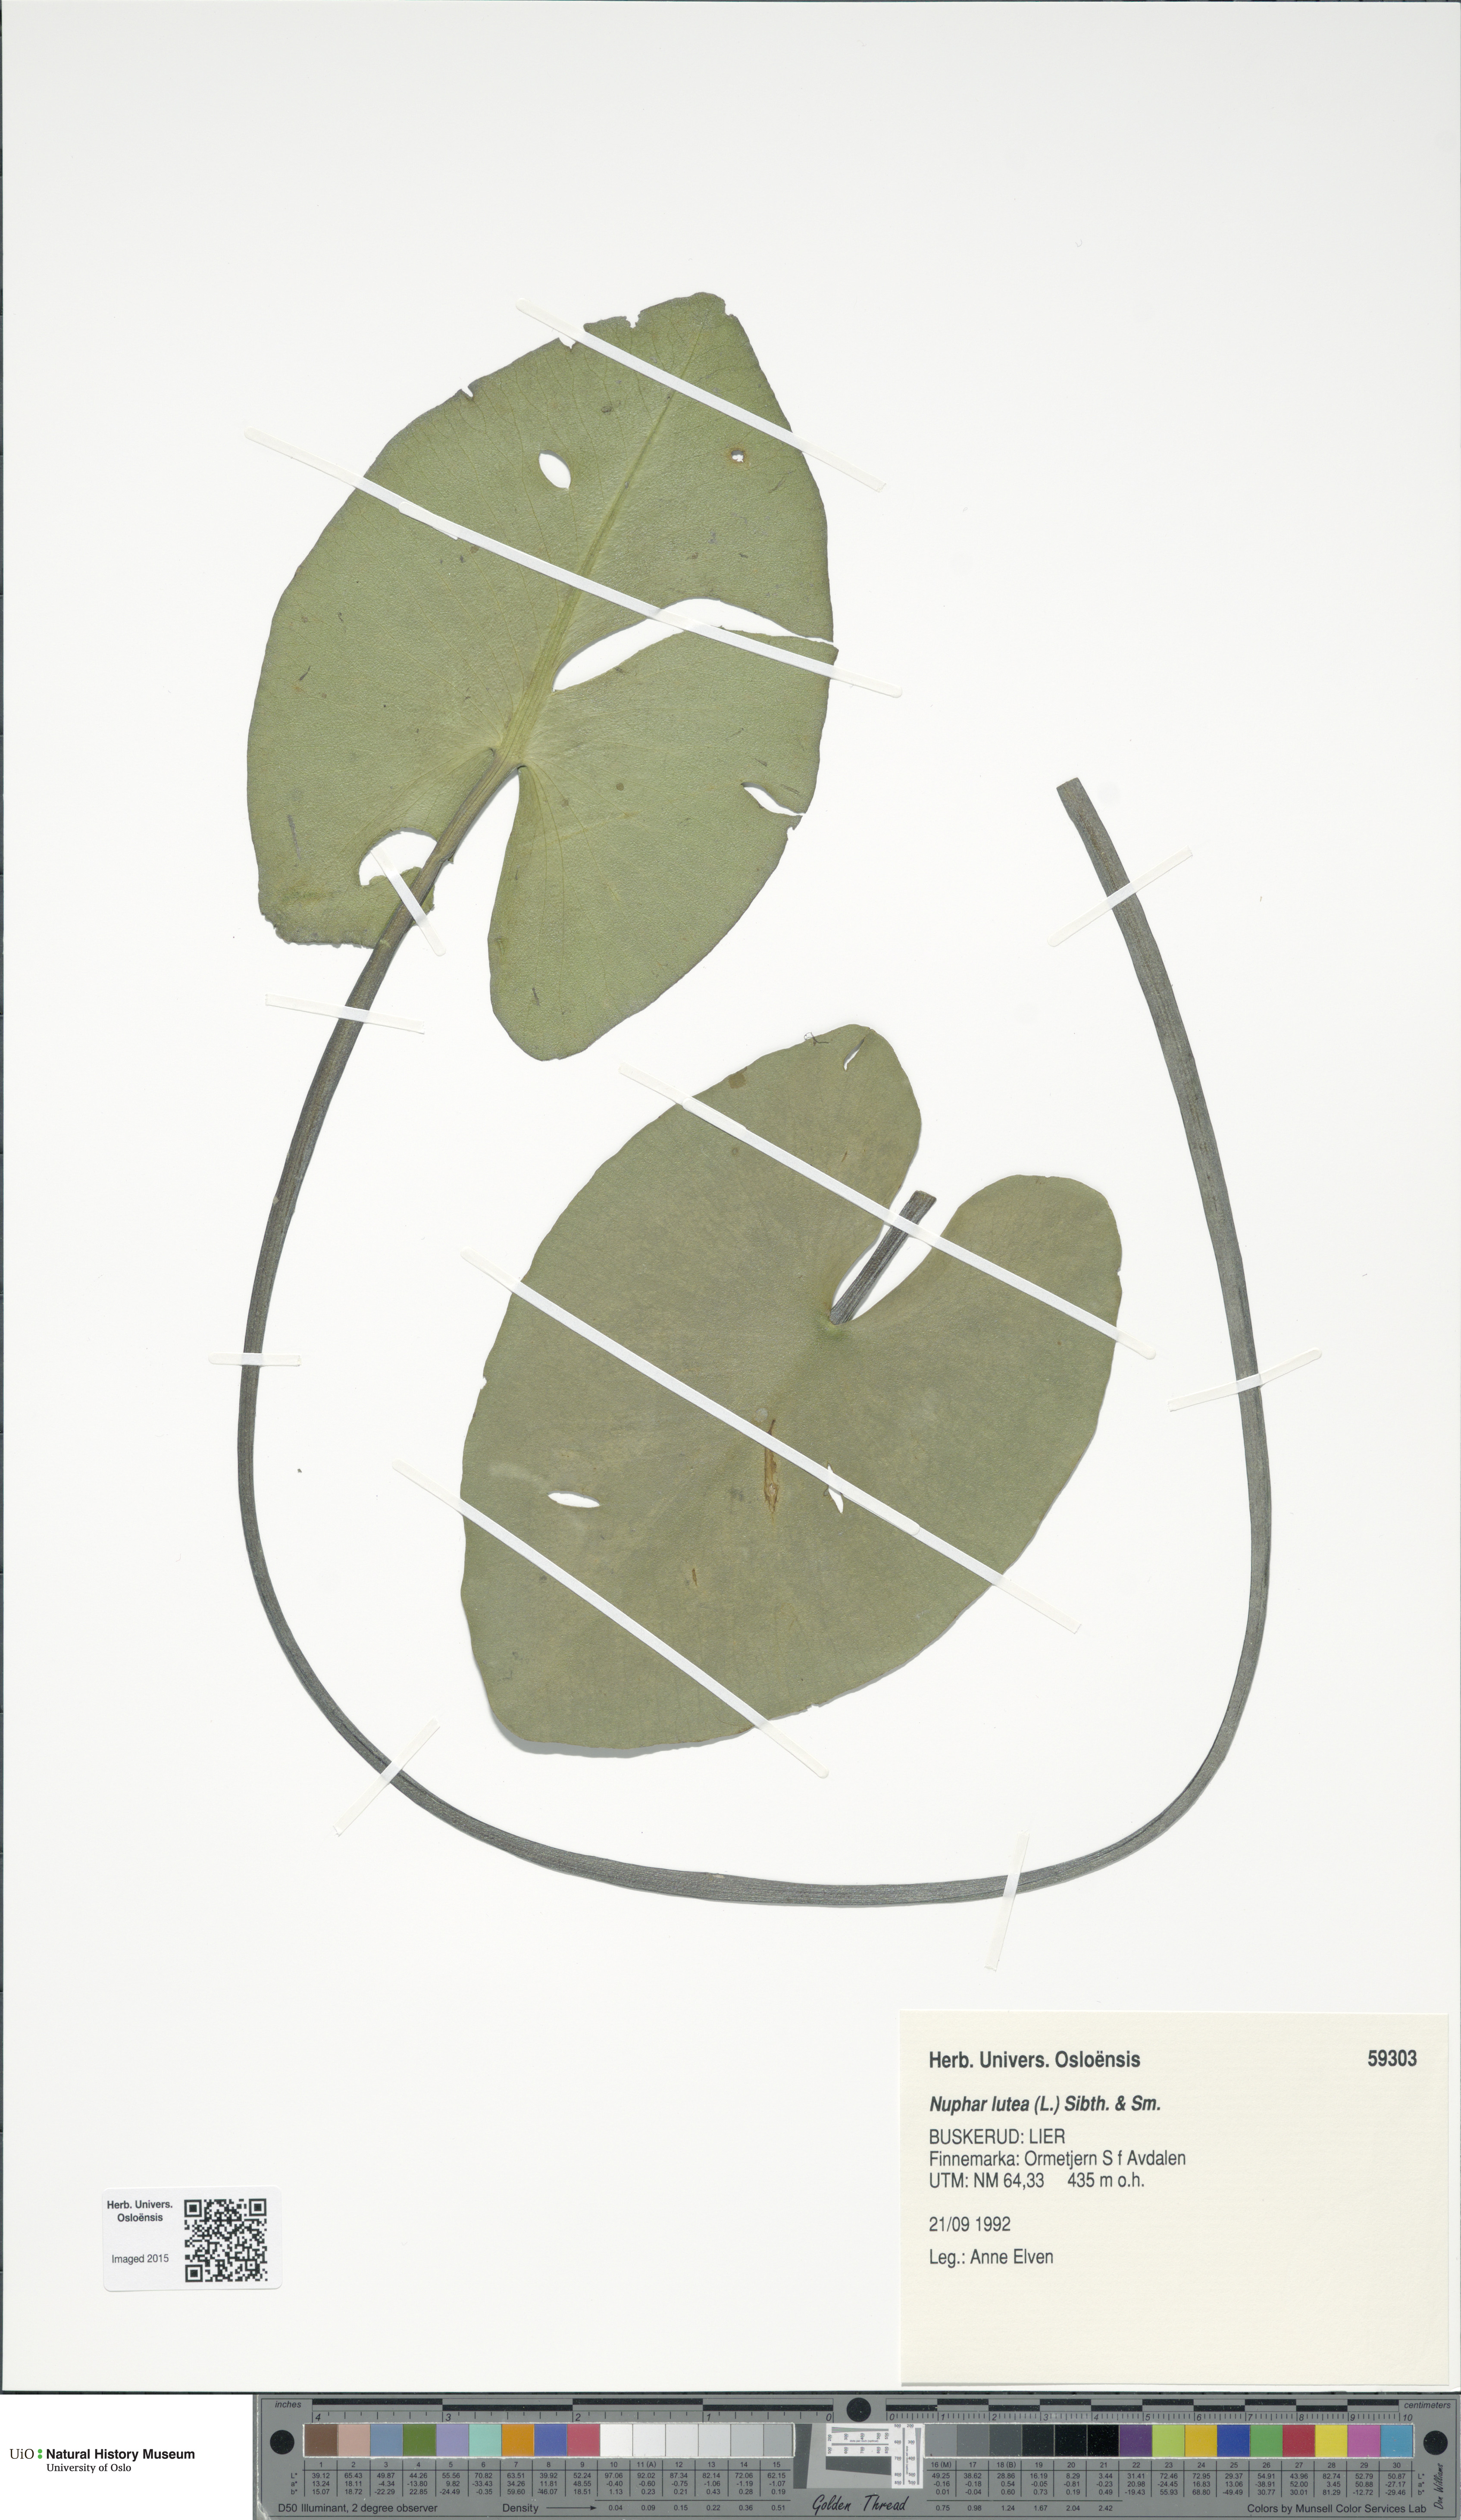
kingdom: Plantae
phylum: Tracheophyta
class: Magnoliopsida
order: Nymphaeales
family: Nymphaeaceae
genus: Nuphar
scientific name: Nuphar lutea
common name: Yellow water-lily
